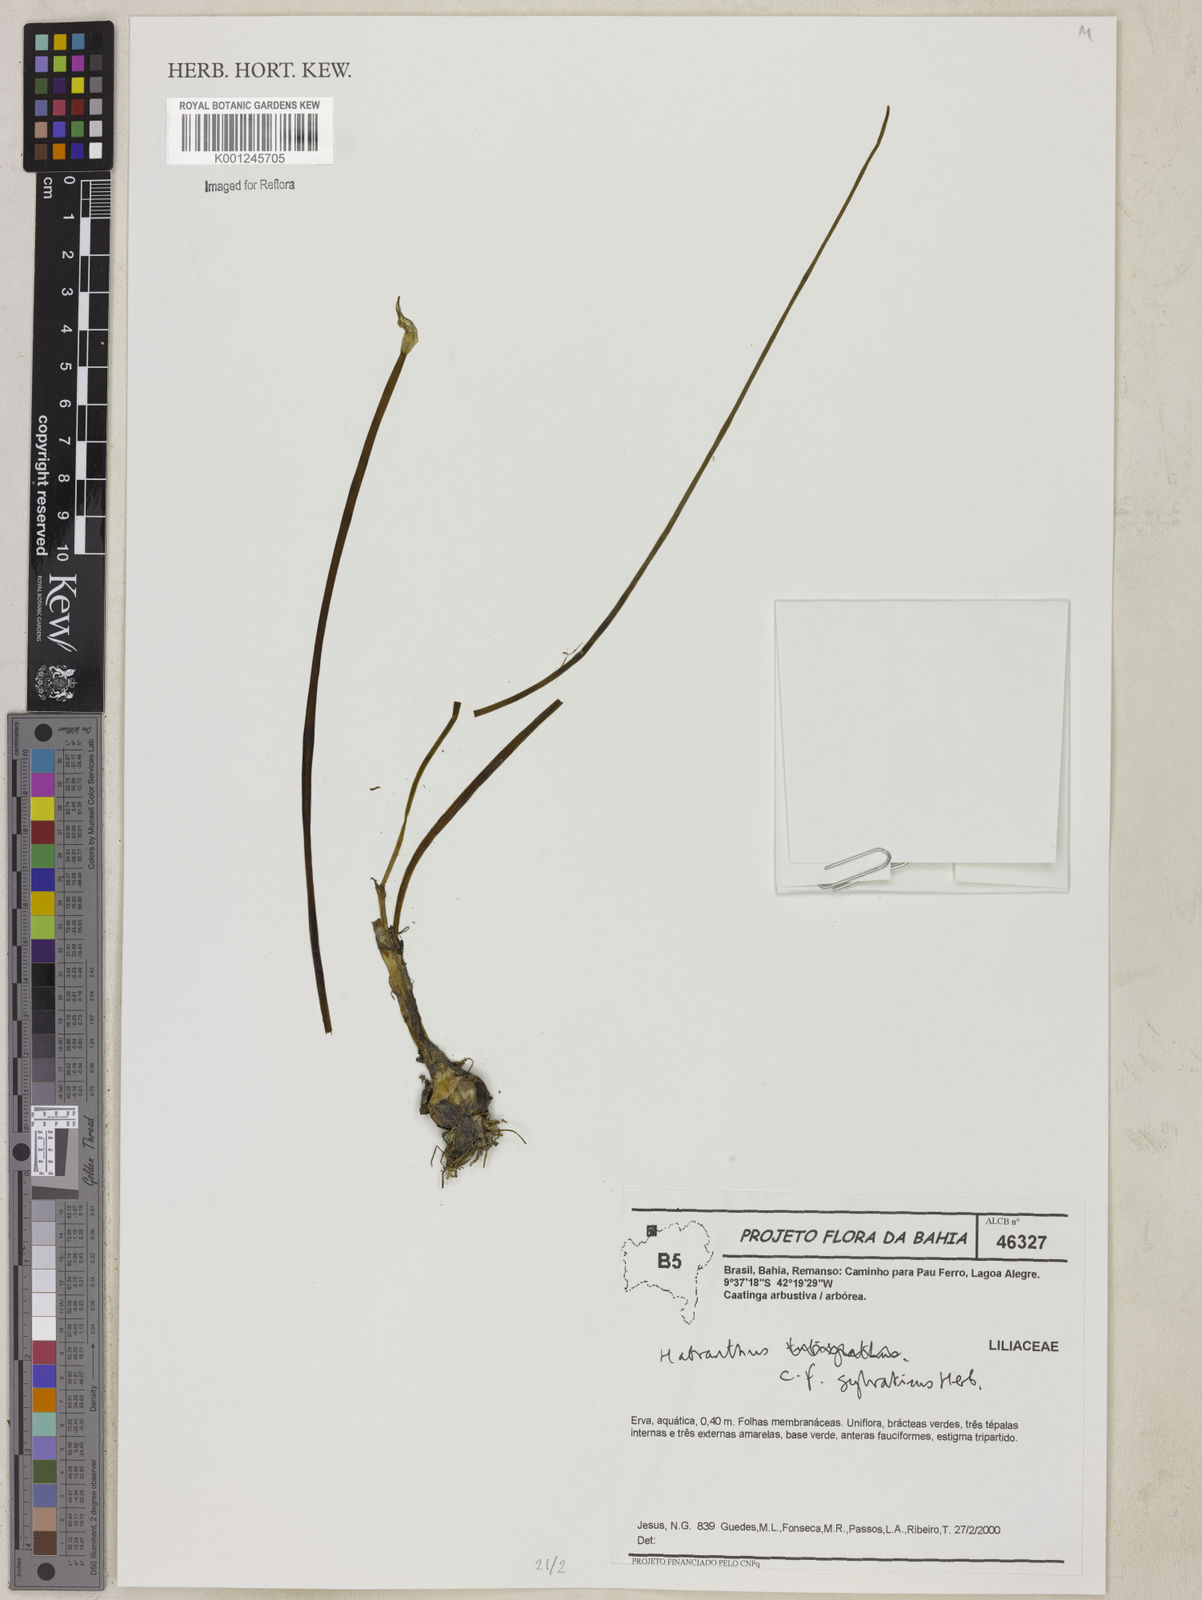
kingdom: Plantae
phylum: Tracheophyta
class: Liliopsida
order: Asparagales
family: Amaryllidaceae
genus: Zephyranthes
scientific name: Zephyranthes sylvatica
